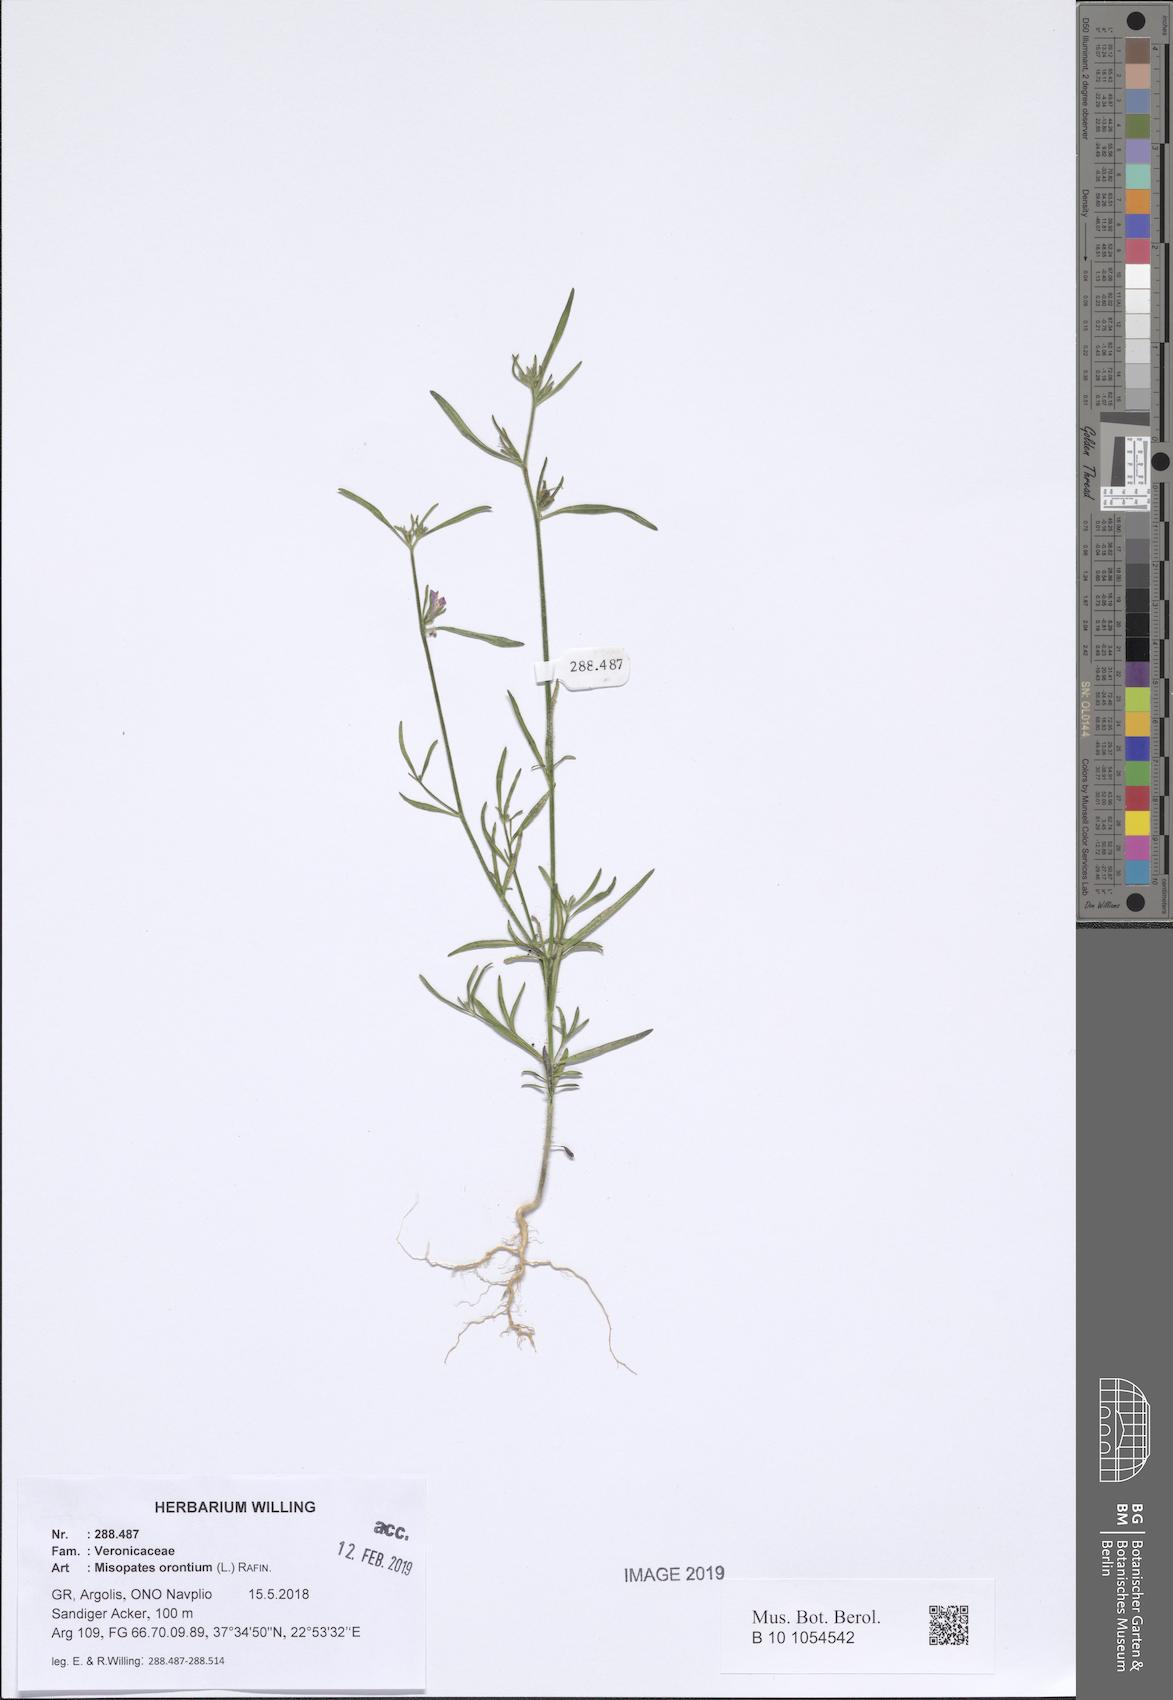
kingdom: Plantae
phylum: Tracheophyta
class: Magnoliopsida
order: Lamiales
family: Plantaginaceae
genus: Misopates
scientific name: Misopates orontium
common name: Weasel's-snout
